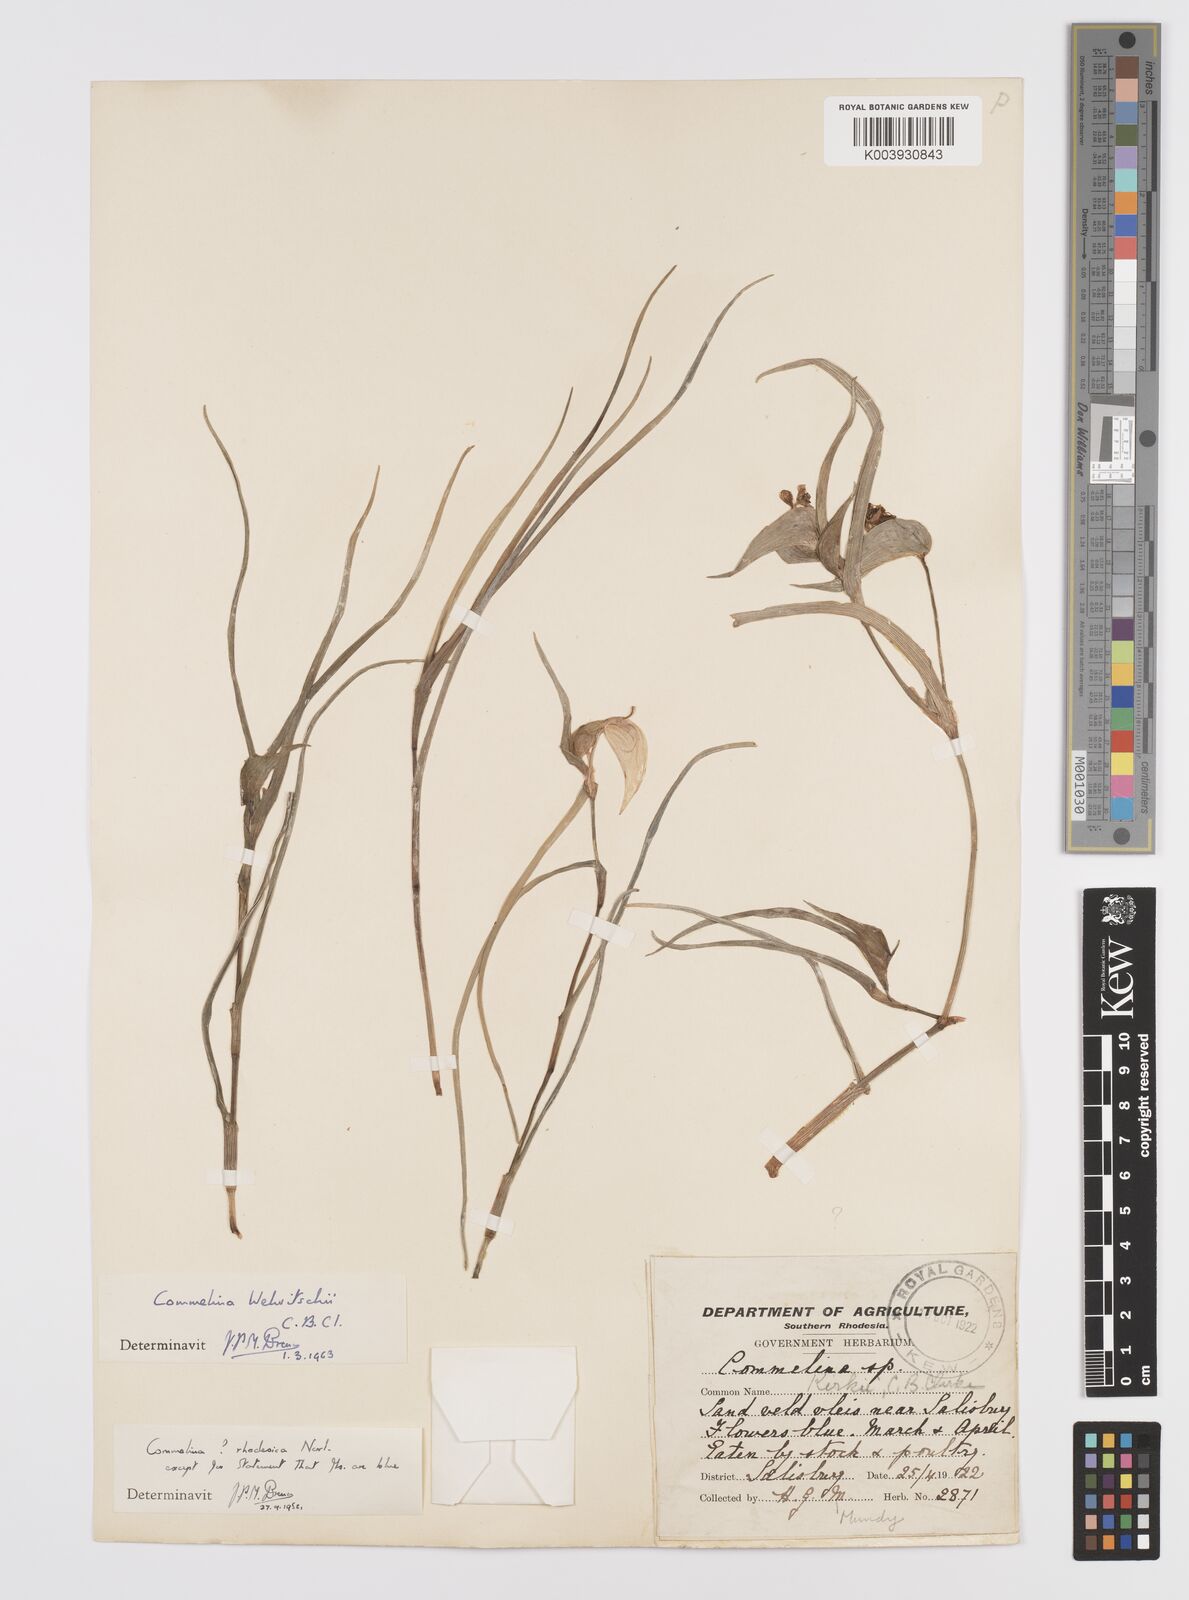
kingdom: Plantae
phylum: Tracheophyta
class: Liliopsida
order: Commelinales
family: Commelinaceae
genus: Commelina
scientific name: Commelina welwitschii
